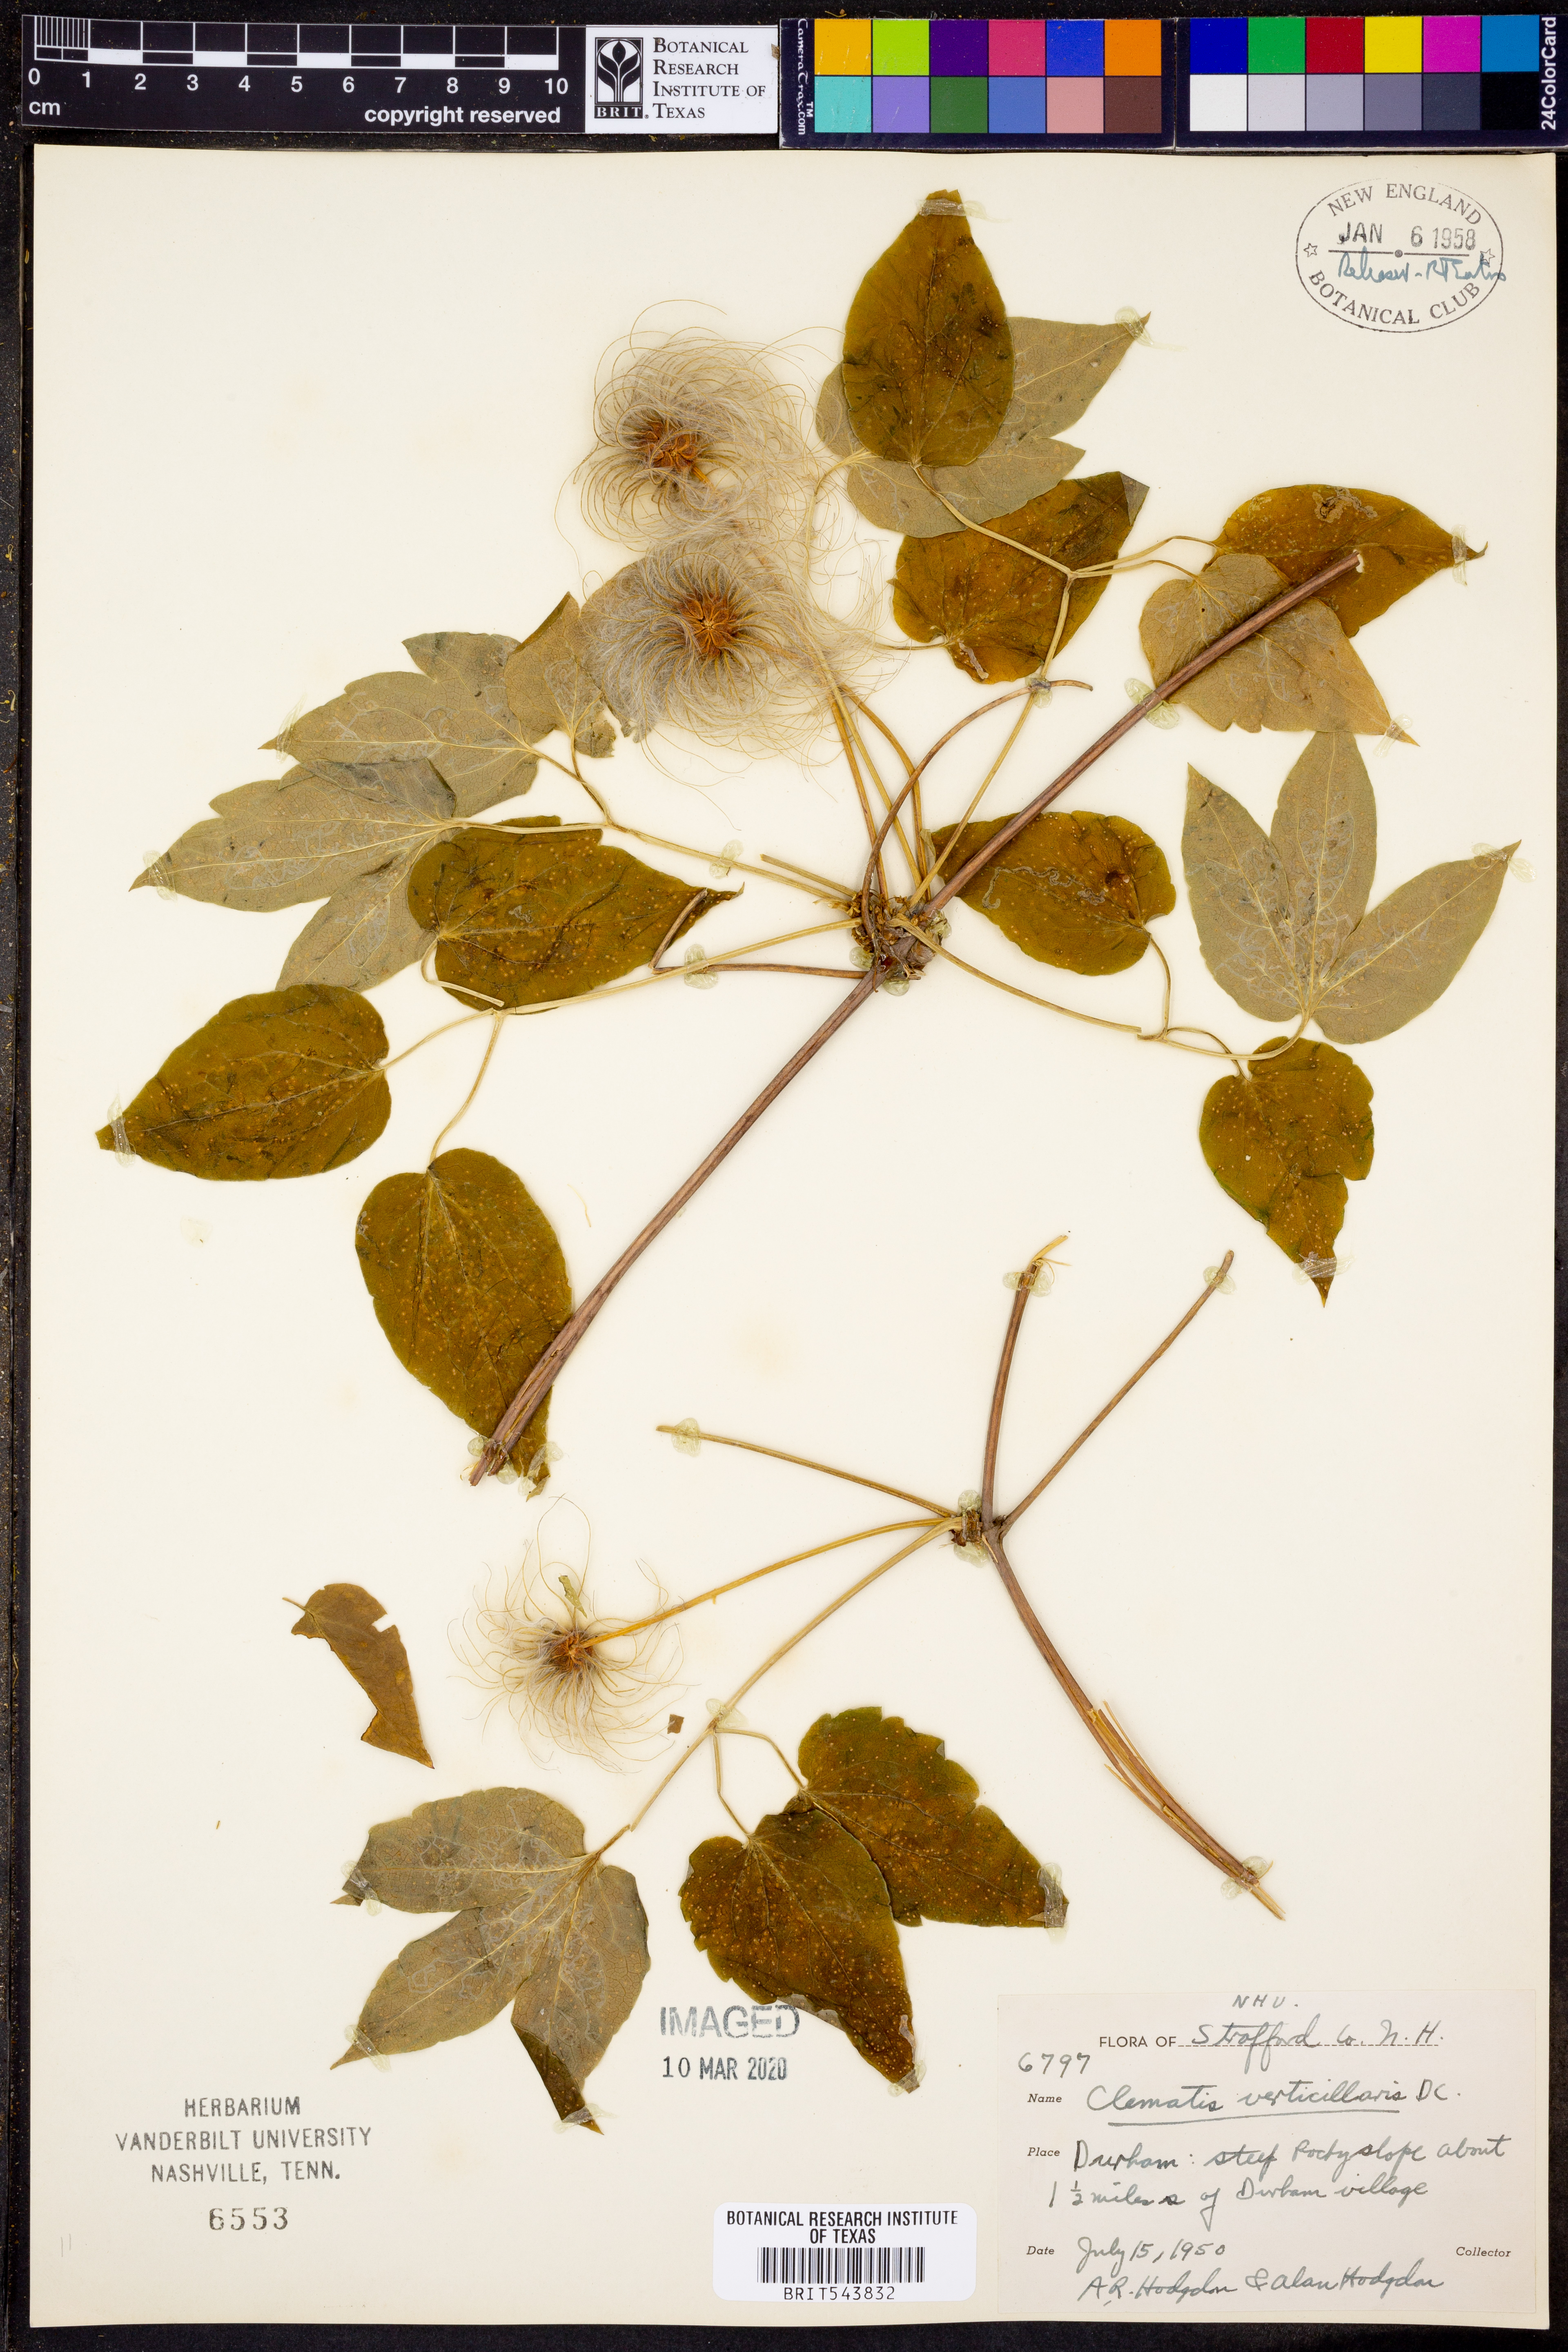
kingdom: Plantae
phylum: Tracheophyta
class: Magnoliopsida
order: Ranunculales
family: Ranunculaceae
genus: Clematis
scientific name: Clematis occidentalis
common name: Purple clematis
